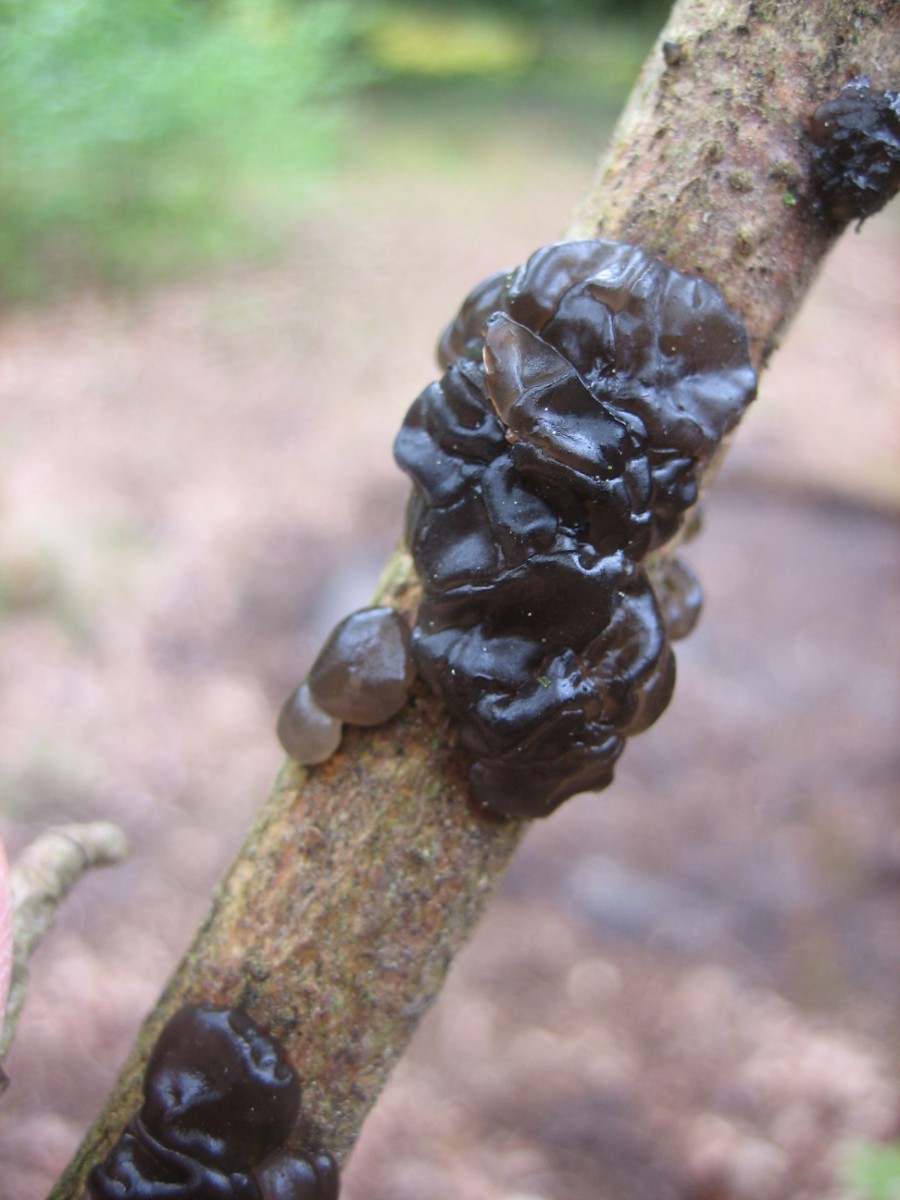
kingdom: Fungi
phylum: Basidiomycota
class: Agaricomycetes
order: Auriculariales
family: Auriculariaceae
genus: Exidia
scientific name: Exidia nigricans
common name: almindelig bævretop
